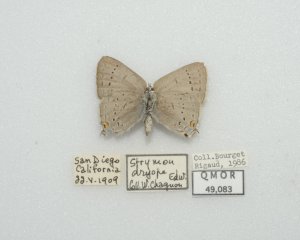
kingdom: Animalia
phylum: Arthropoda
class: Insecta
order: Lepidoptera
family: Lycaenidae
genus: Strymon
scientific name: Strymon sylvinus
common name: Sylvan Hairstreak
